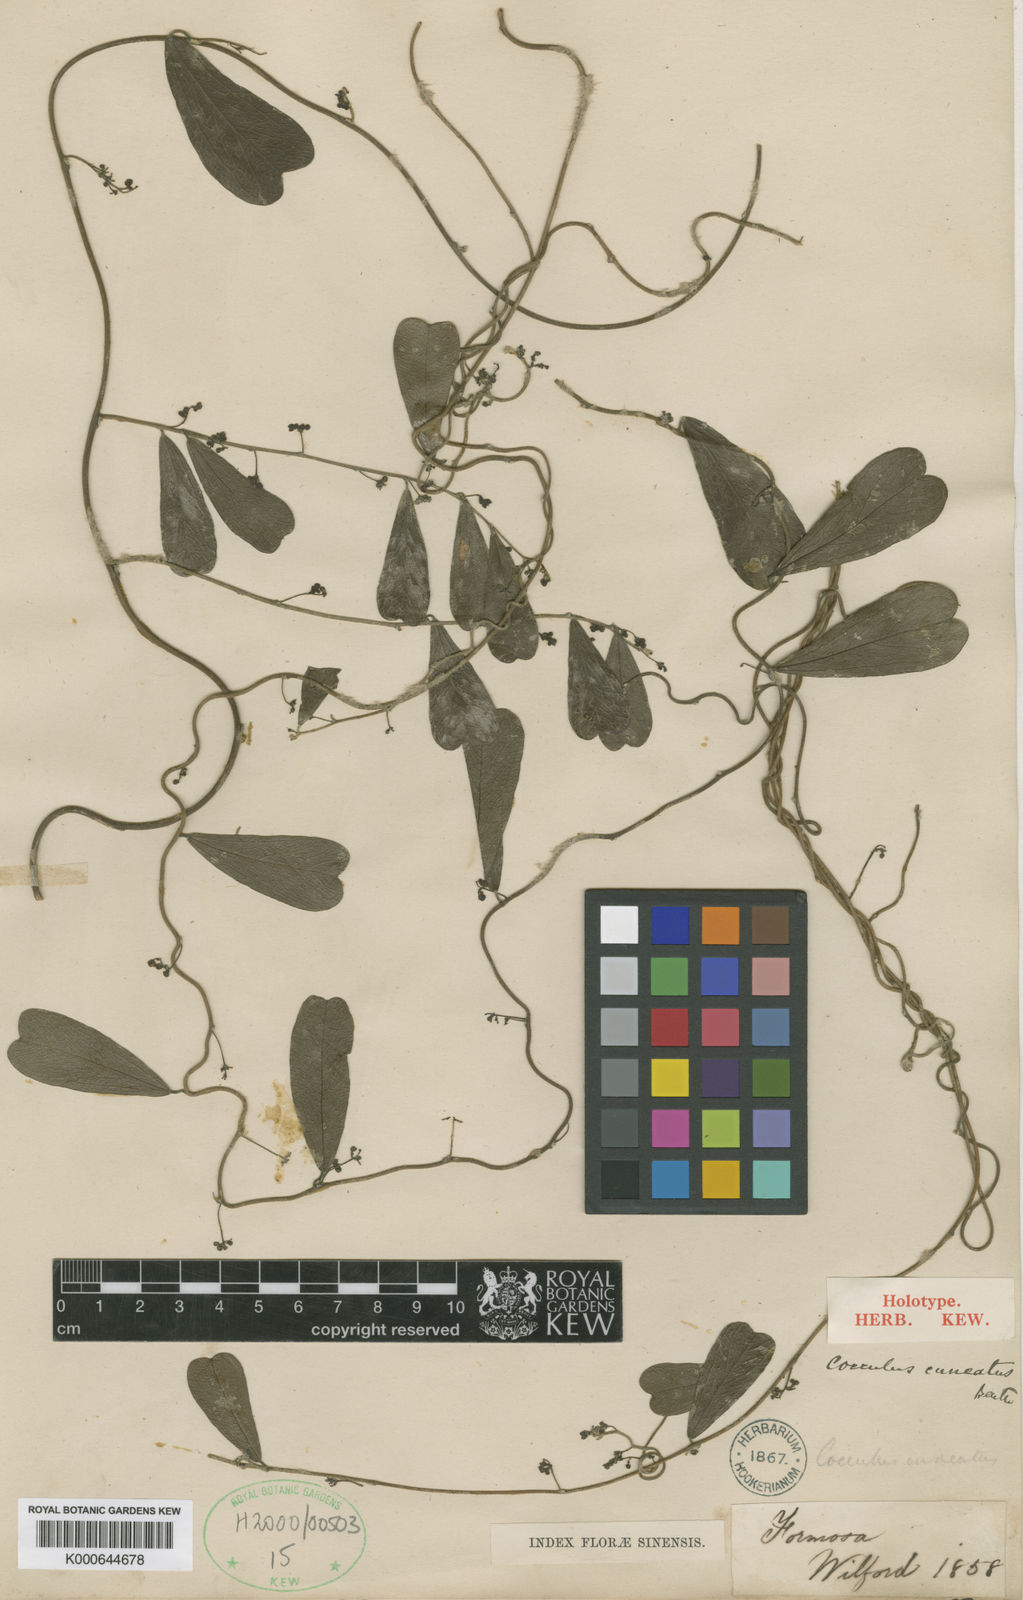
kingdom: Plantae
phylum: Tracheophyta
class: Magnoliopsida
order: Ranunculales
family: Menispermaceae
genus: Cocculus
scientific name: Cocculus orbiculatus
